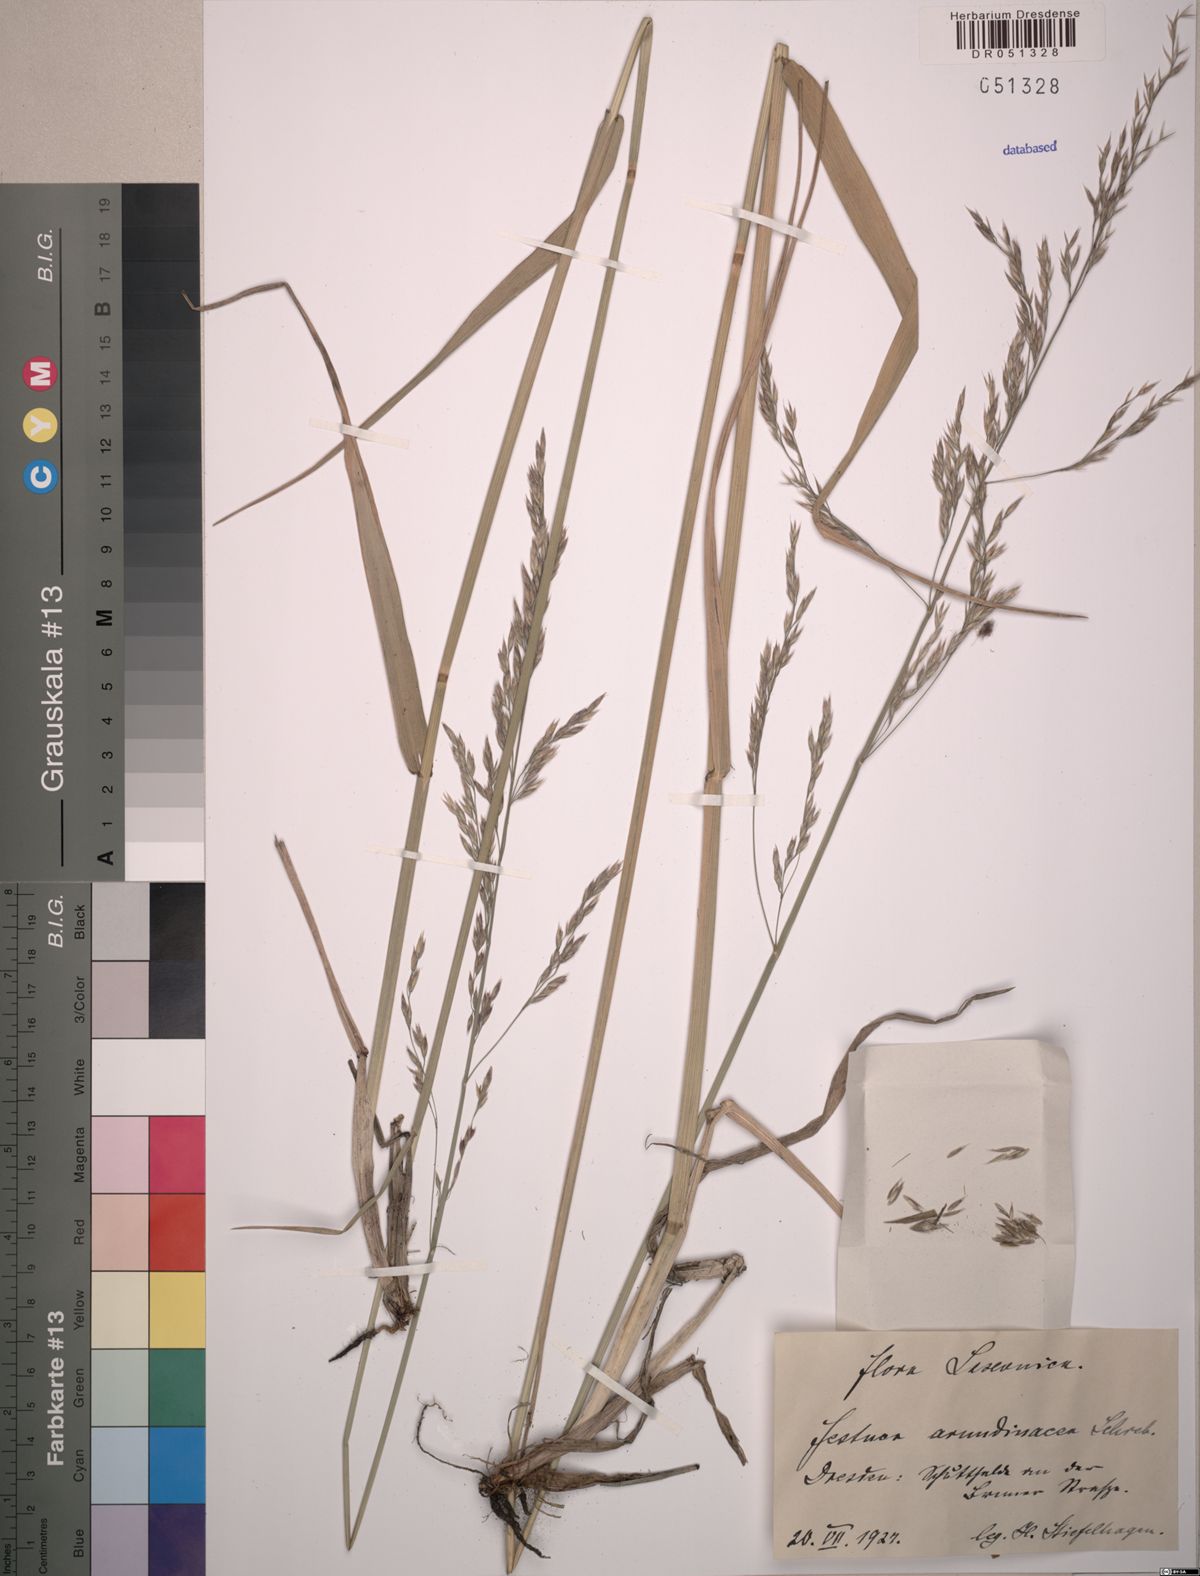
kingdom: Plantae
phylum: Tracheophyta
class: Liliopsida
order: Poales
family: Poaceae
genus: Lolium
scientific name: Lolium arundinaceum
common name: Reed fescue
